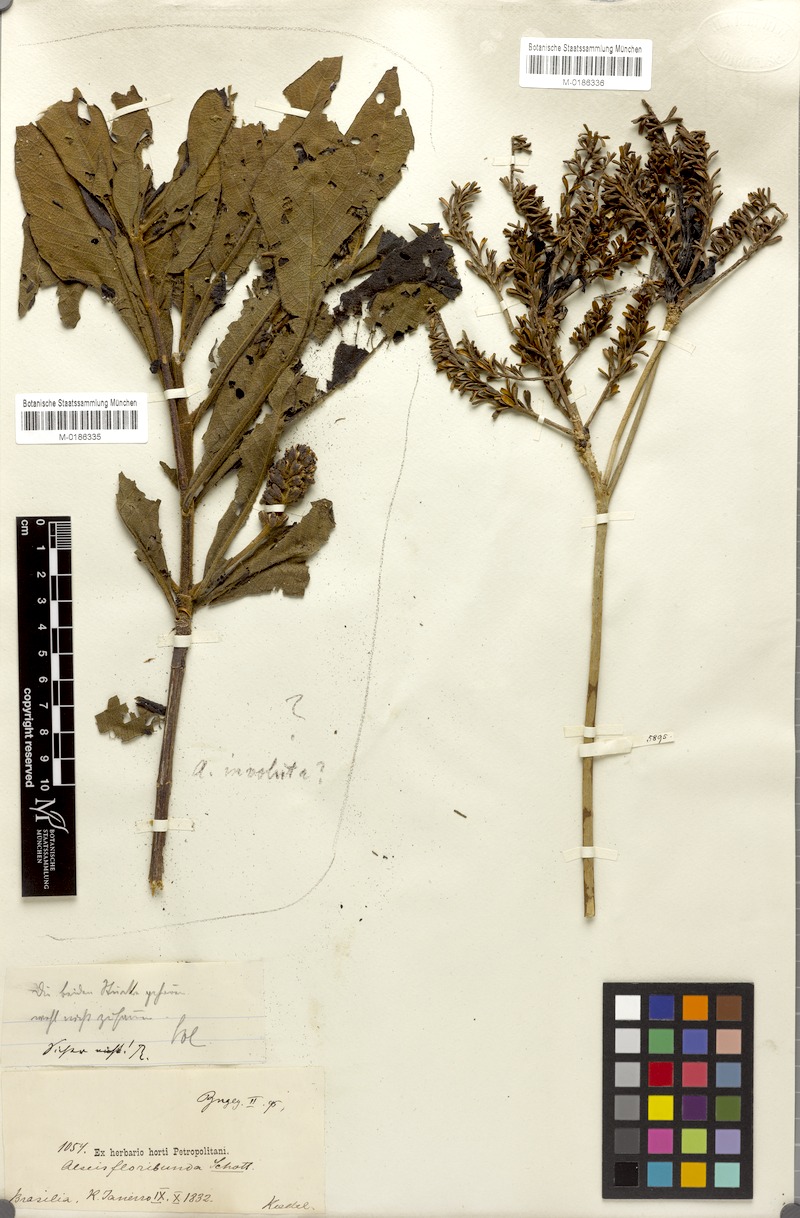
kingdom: Plantae
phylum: Tracheophyta
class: Magnoliopsida
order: Gentianales
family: Rubiaceae
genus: Alseis
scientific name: Alseis floribunda
